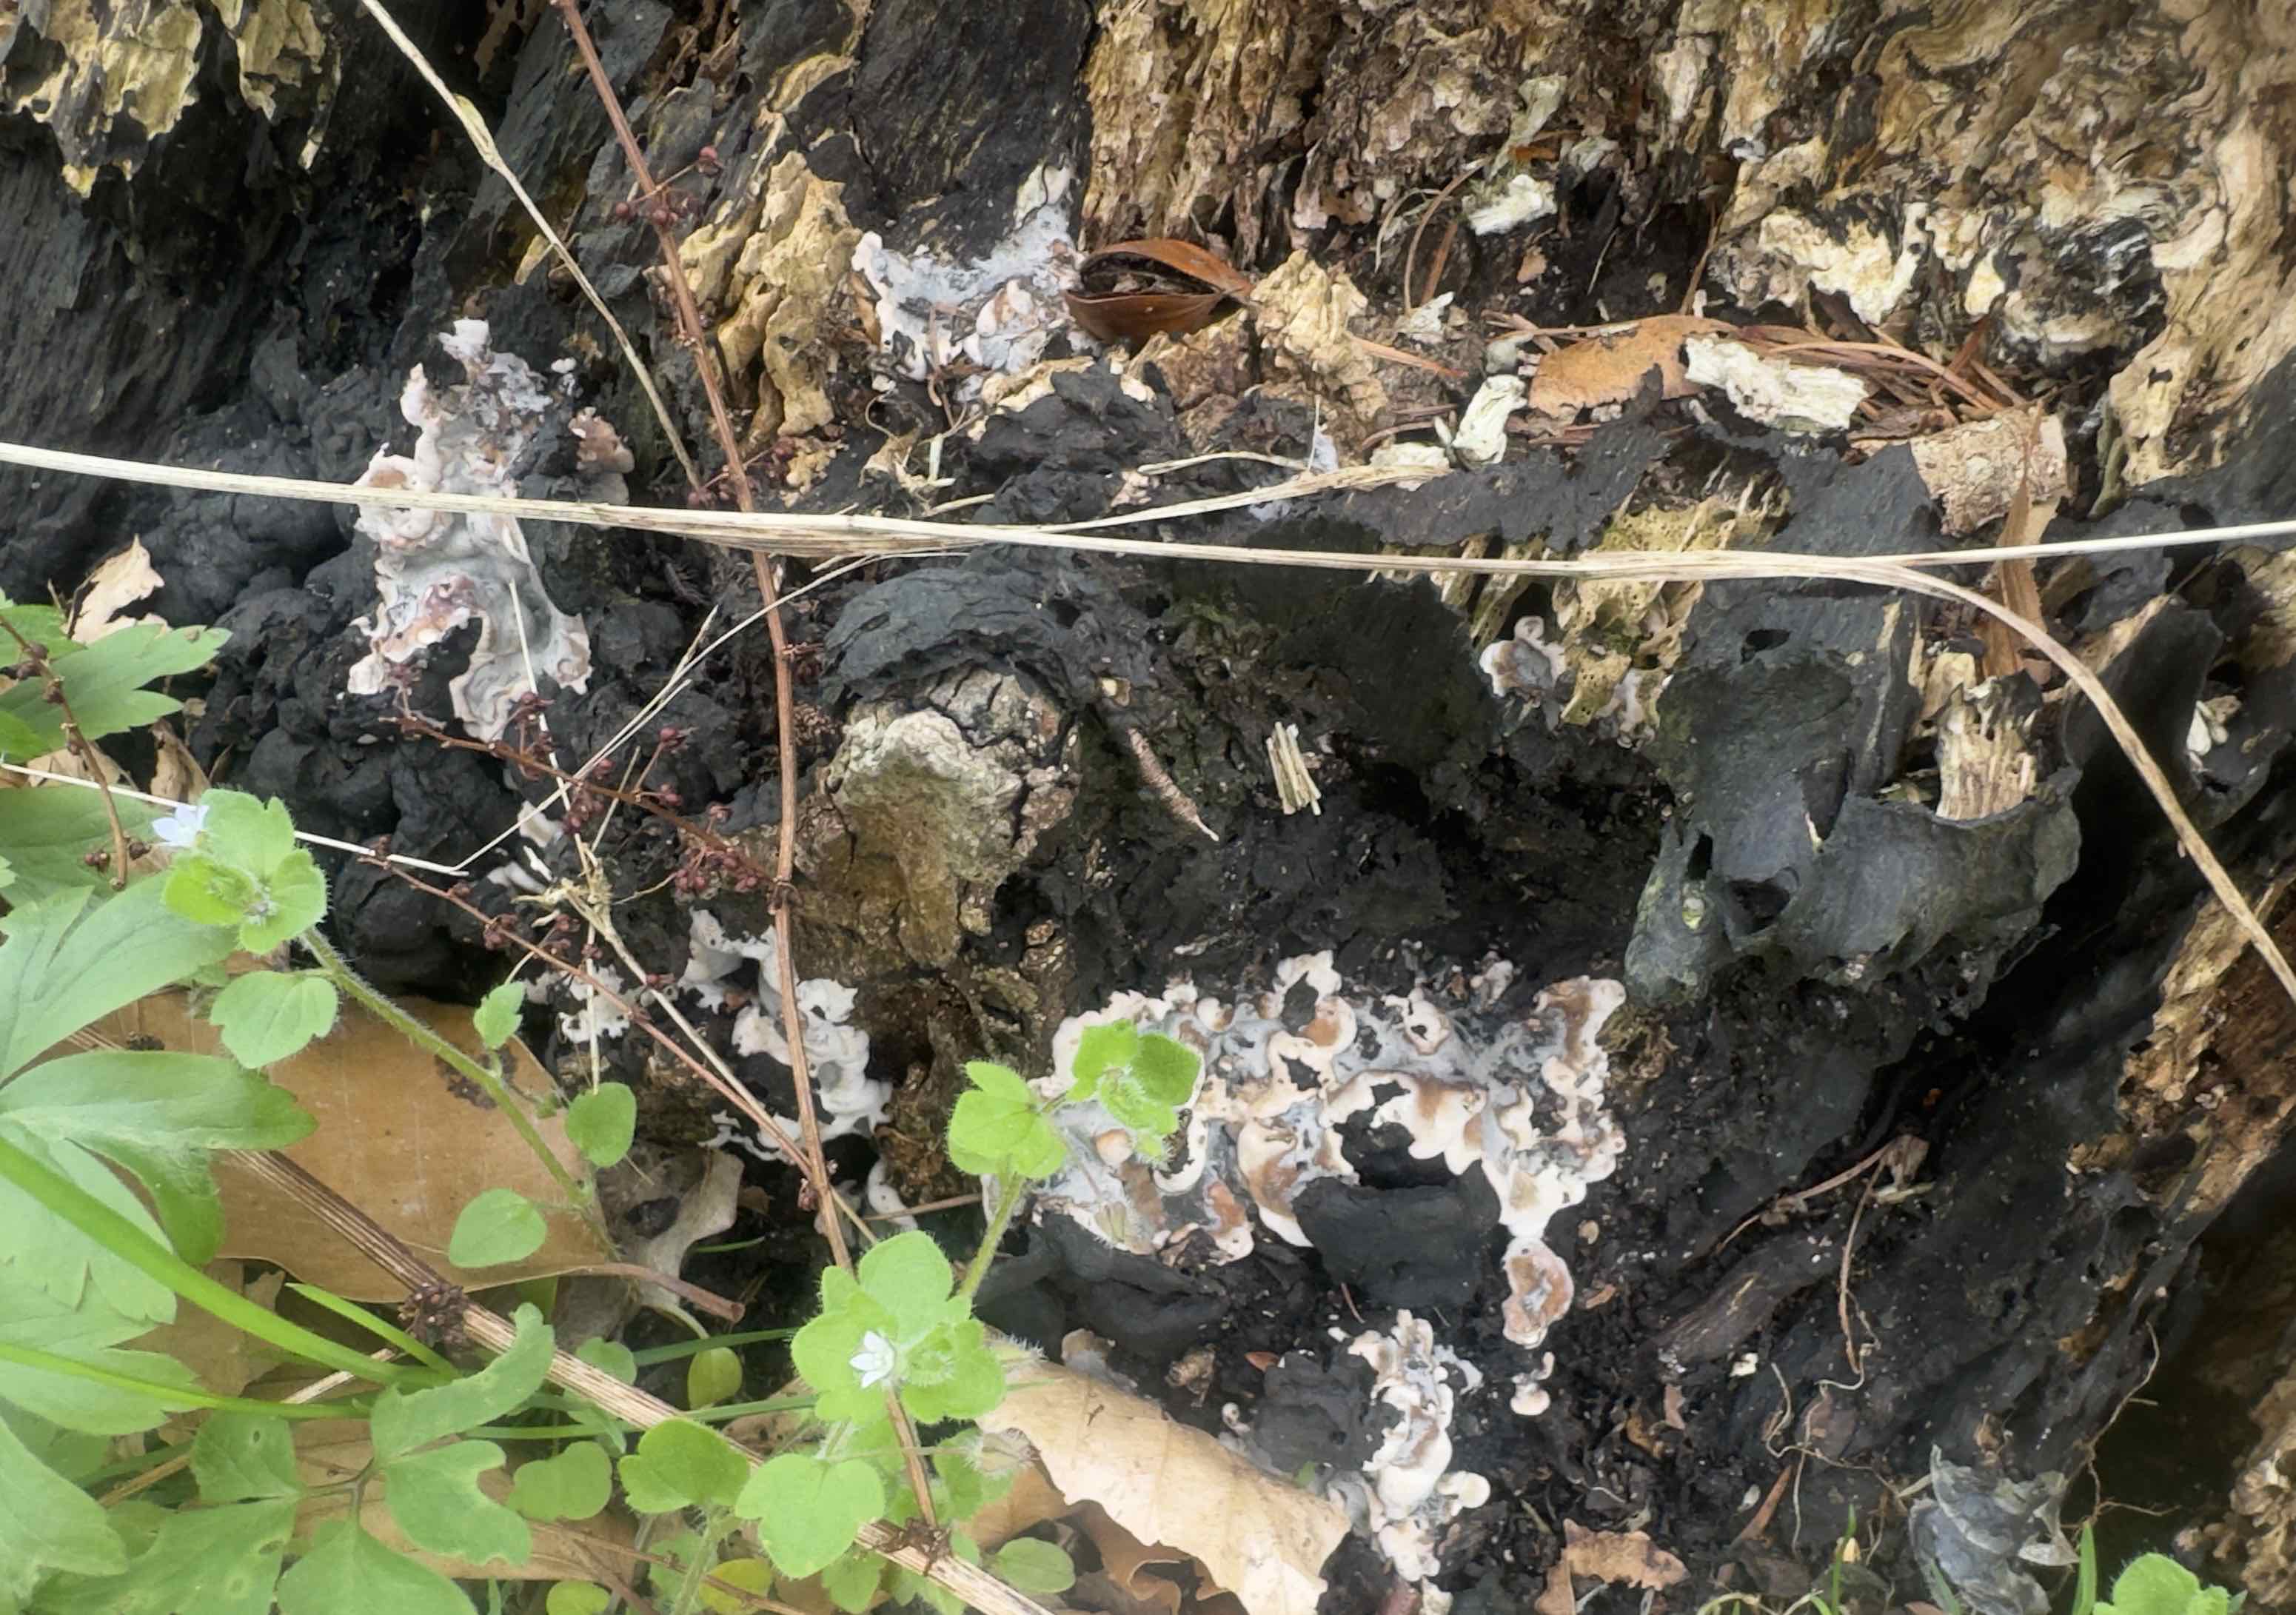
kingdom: Fungi
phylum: Ascomycota
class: Sordariomycetes
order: Xylariales
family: Xylariaceae
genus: Kretzschmaria
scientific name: Kretzschmaria deusta
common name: stor kulsvamp
